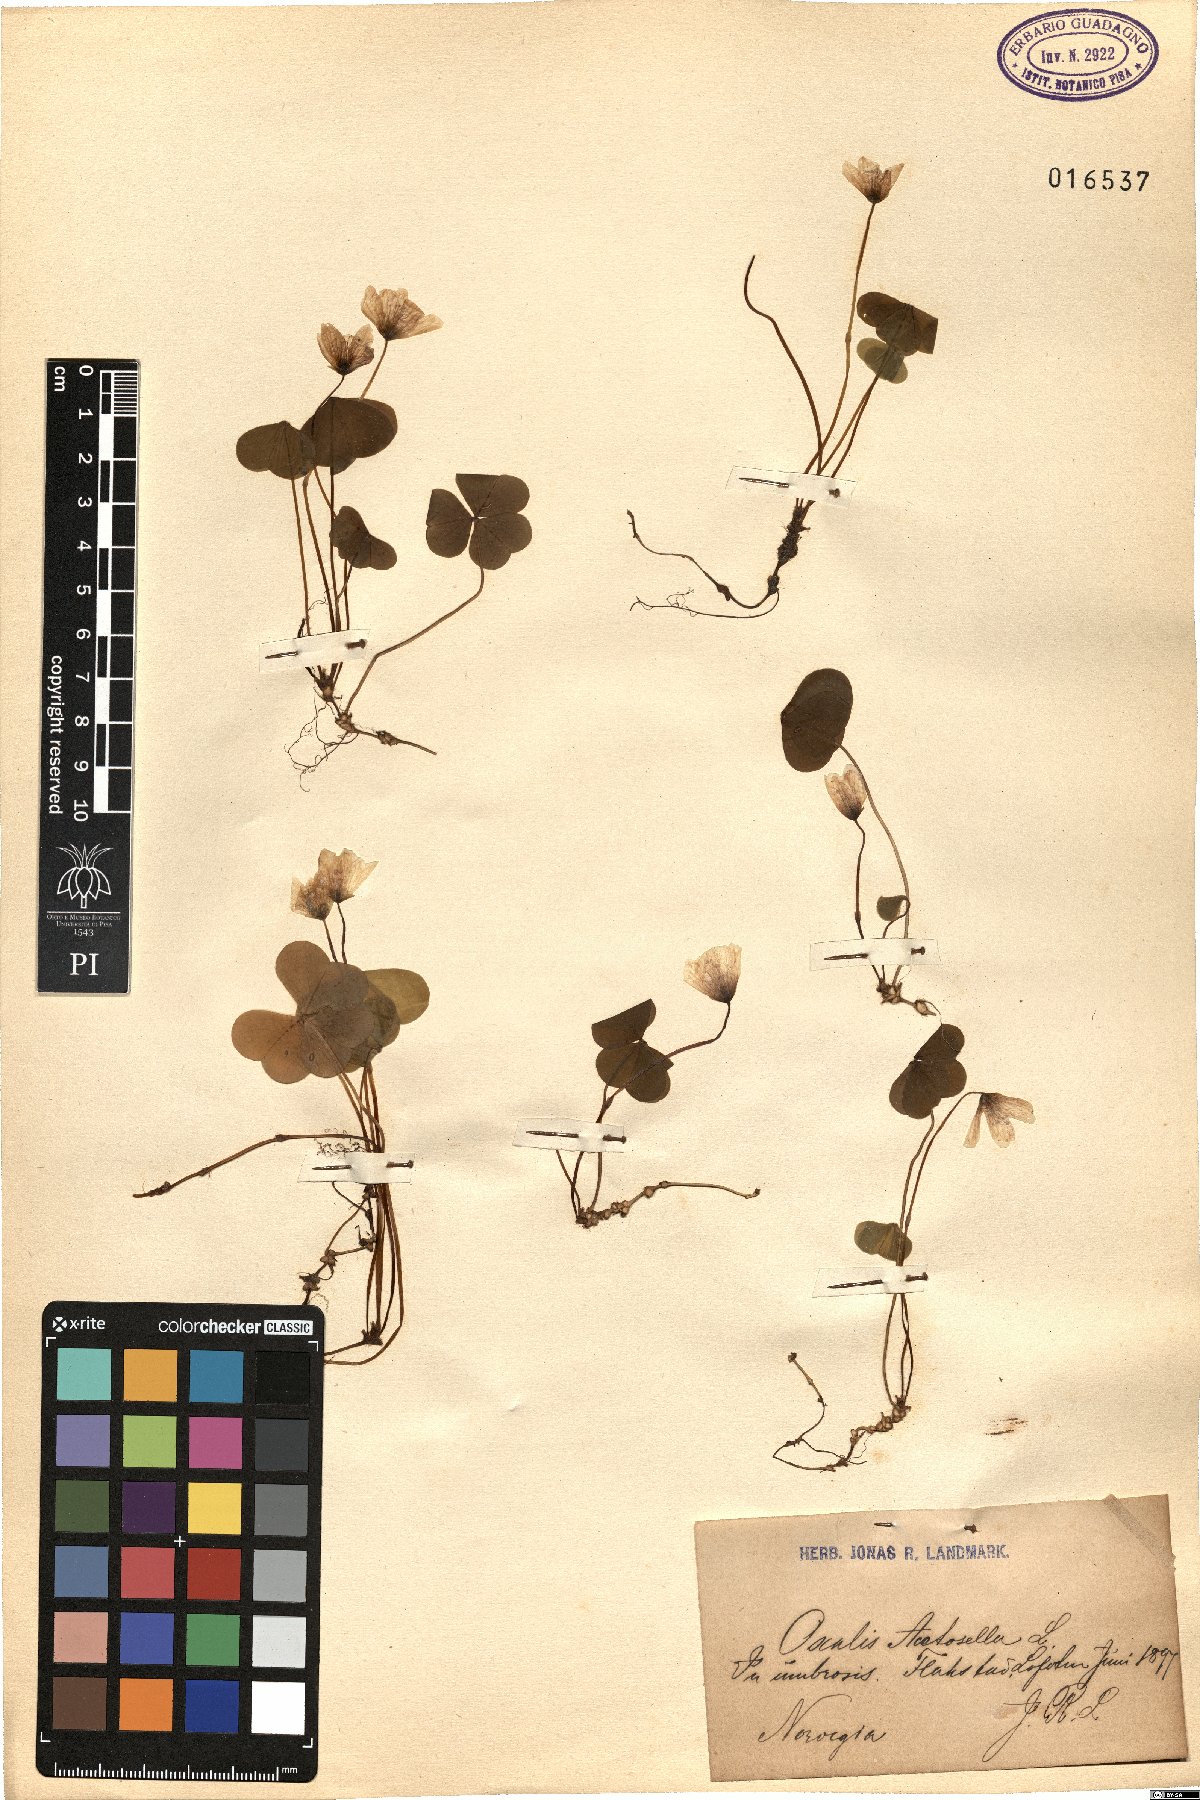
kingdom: Plantae
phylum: Tracheophyta
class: Magnoliopsida
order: Oxalidales
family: Oxalidaceae
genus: Oxalis
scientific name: Oxalis acetosella
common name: Wood-sorrel
